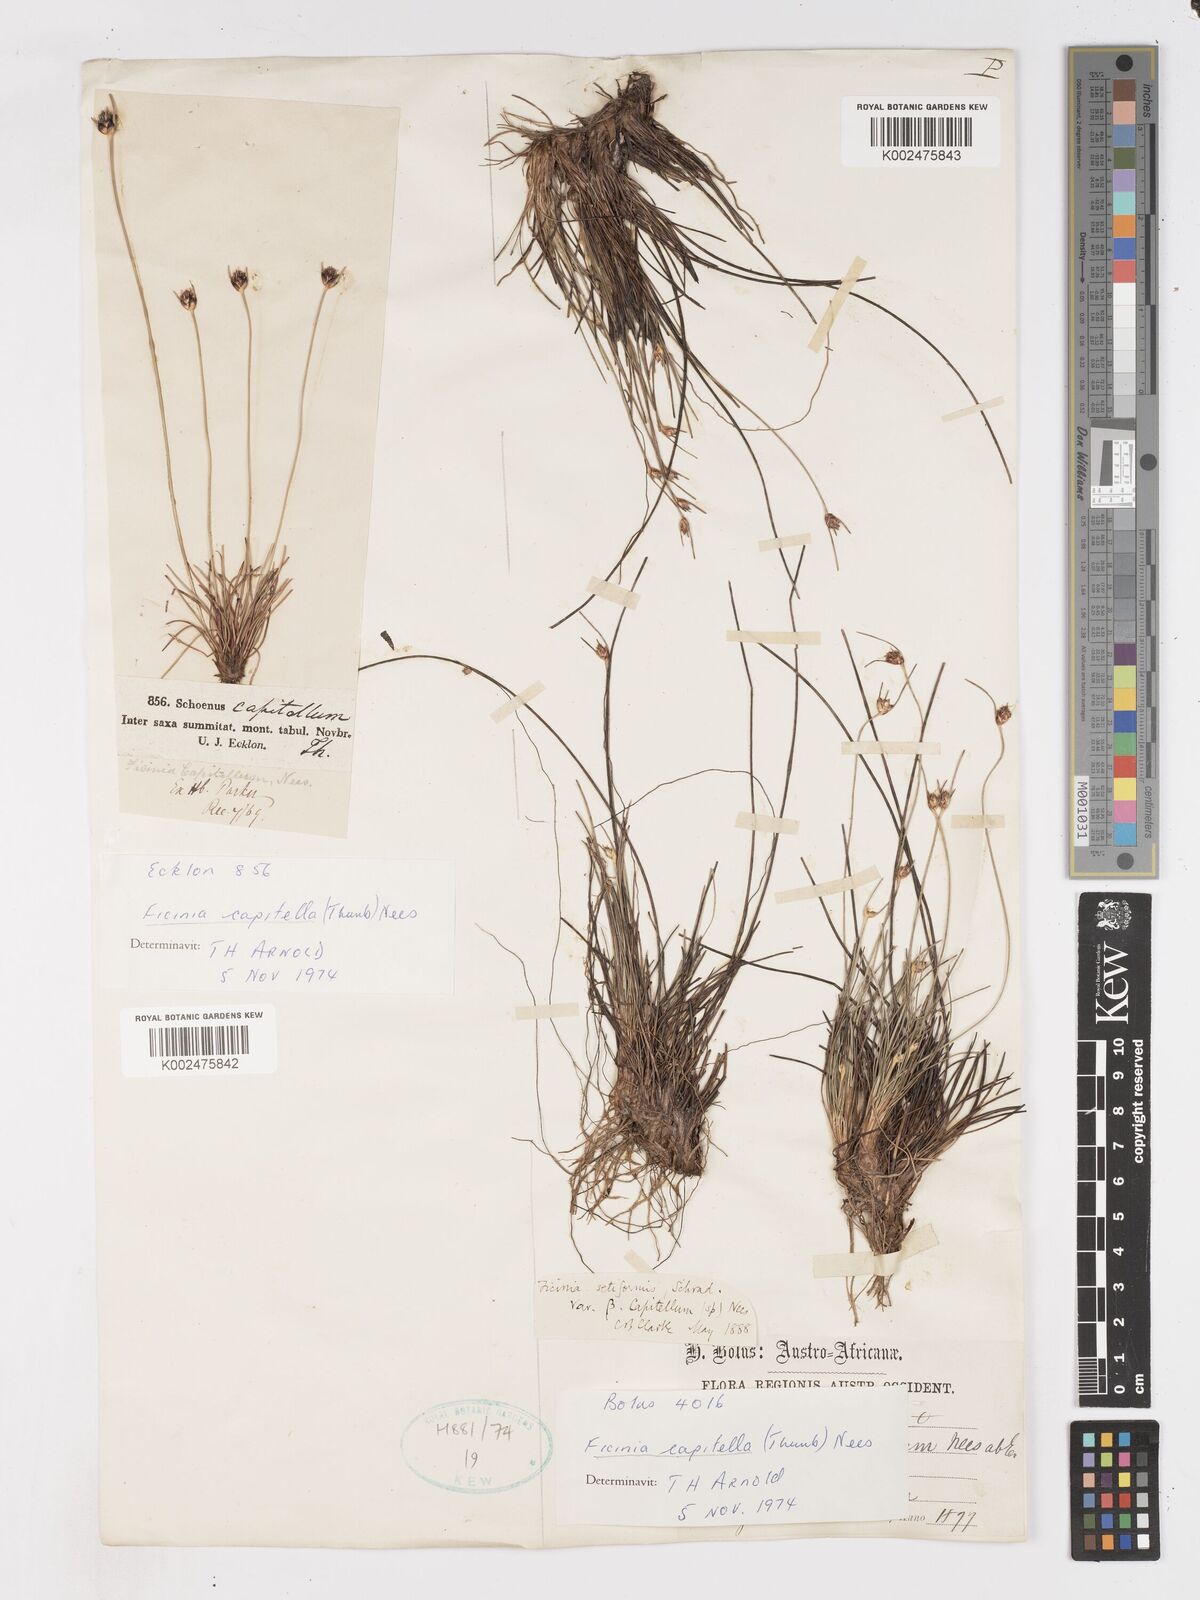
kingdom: Plantae
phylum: Tracheophyta
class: Liliopsida
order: Poales
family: Cyperaceae
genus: Ficinia
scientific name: Ficinia capitella
